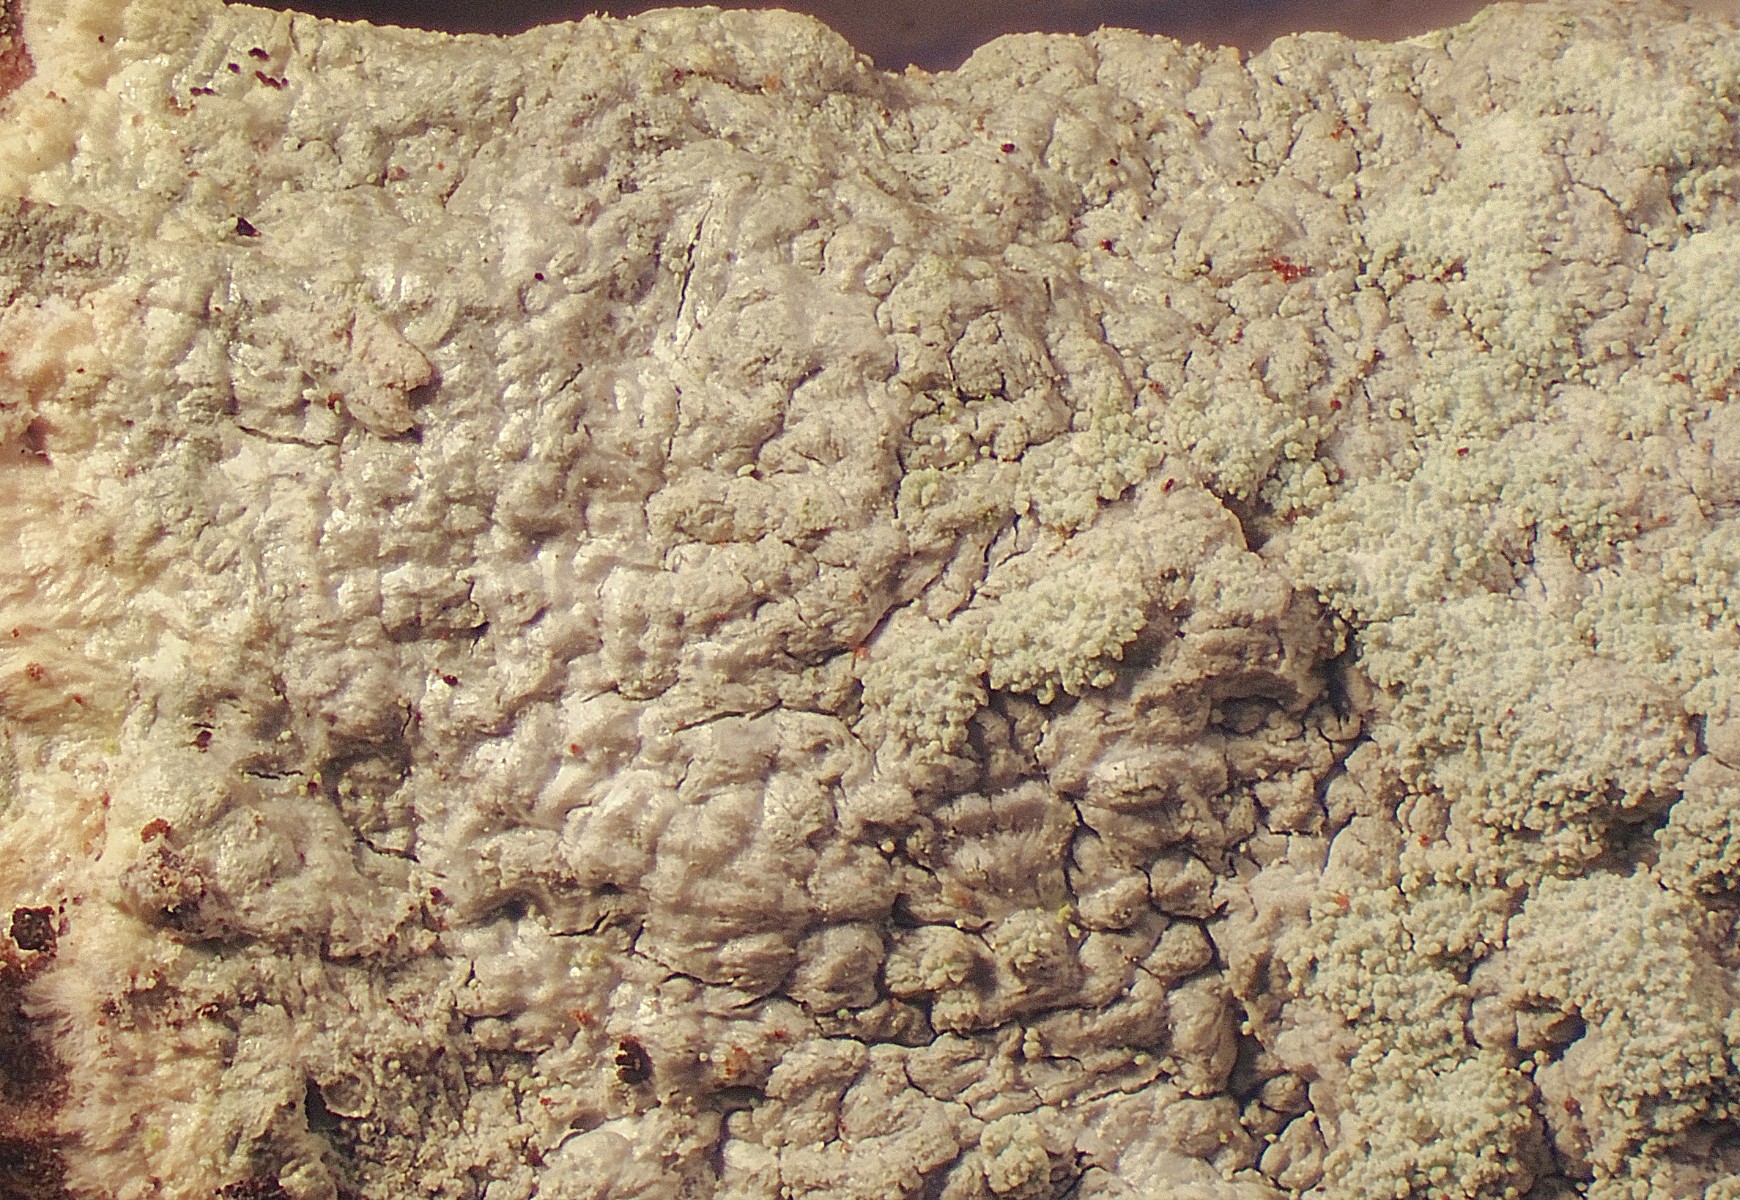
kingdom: Fungi
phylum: Ascomycota
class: Lecanoromycetes
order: Pertusariales
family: Ochrolechiaceae
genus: Ochrolechia
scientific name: Ochrolechia subviridis
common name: vorte-blegskivelav
